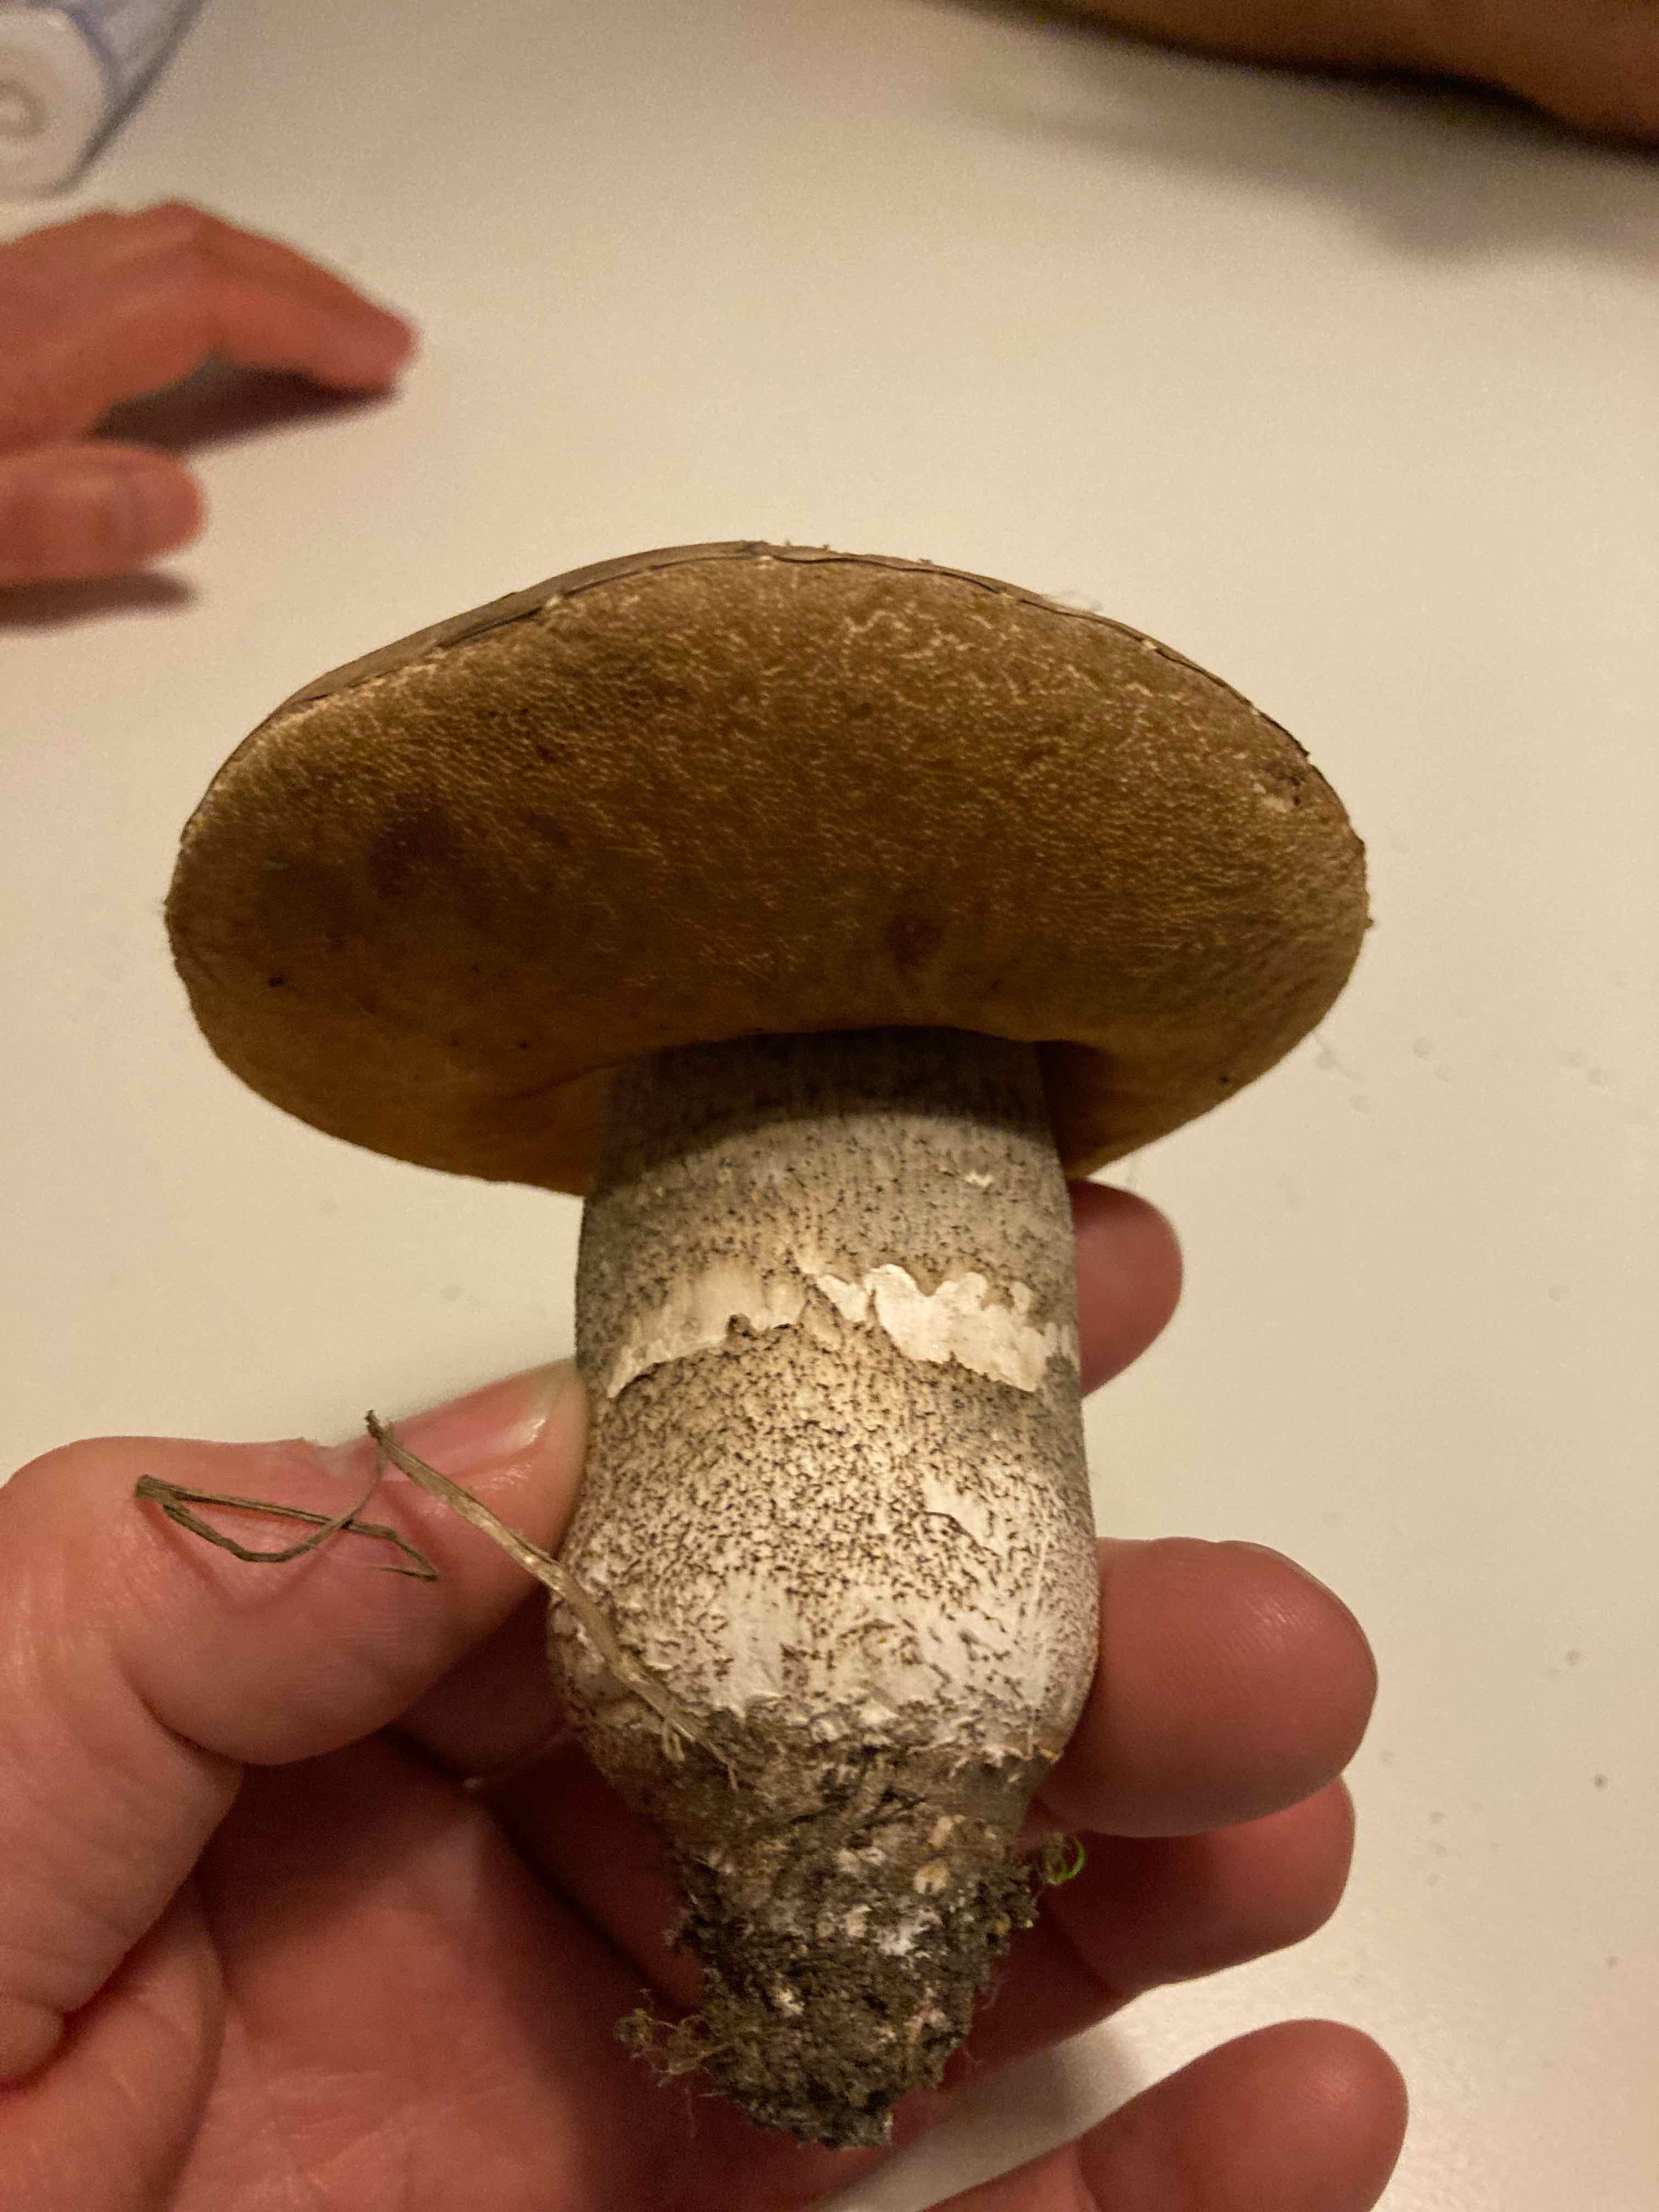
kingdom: Fungi
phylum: Basidiomycota
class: Agaricomycetes
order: Boletales
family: Boletaceae
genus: Leccinum
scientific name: Leccinum
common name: skælrørhat
